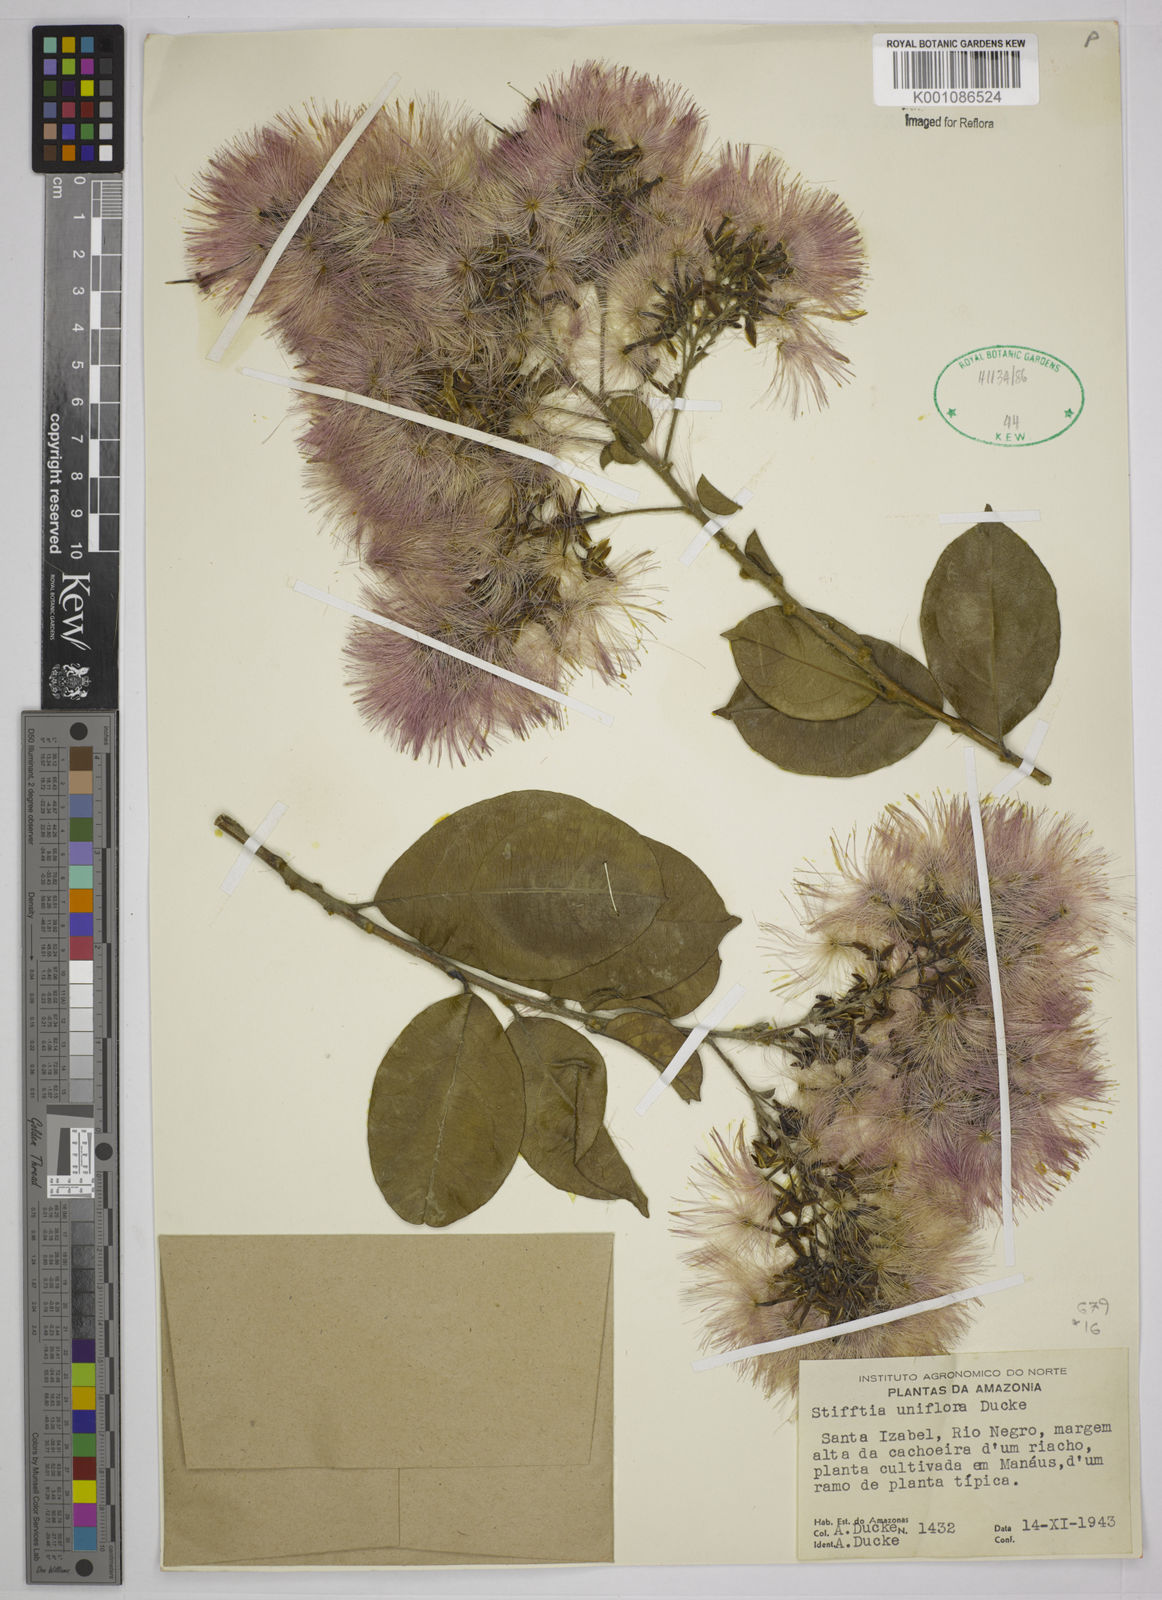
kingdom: Plantae
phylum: Tracheophyta
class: Magnoliopsida
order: Asterales
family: Asteraceae
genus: Stifftia
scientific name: Stifftia uniflora
